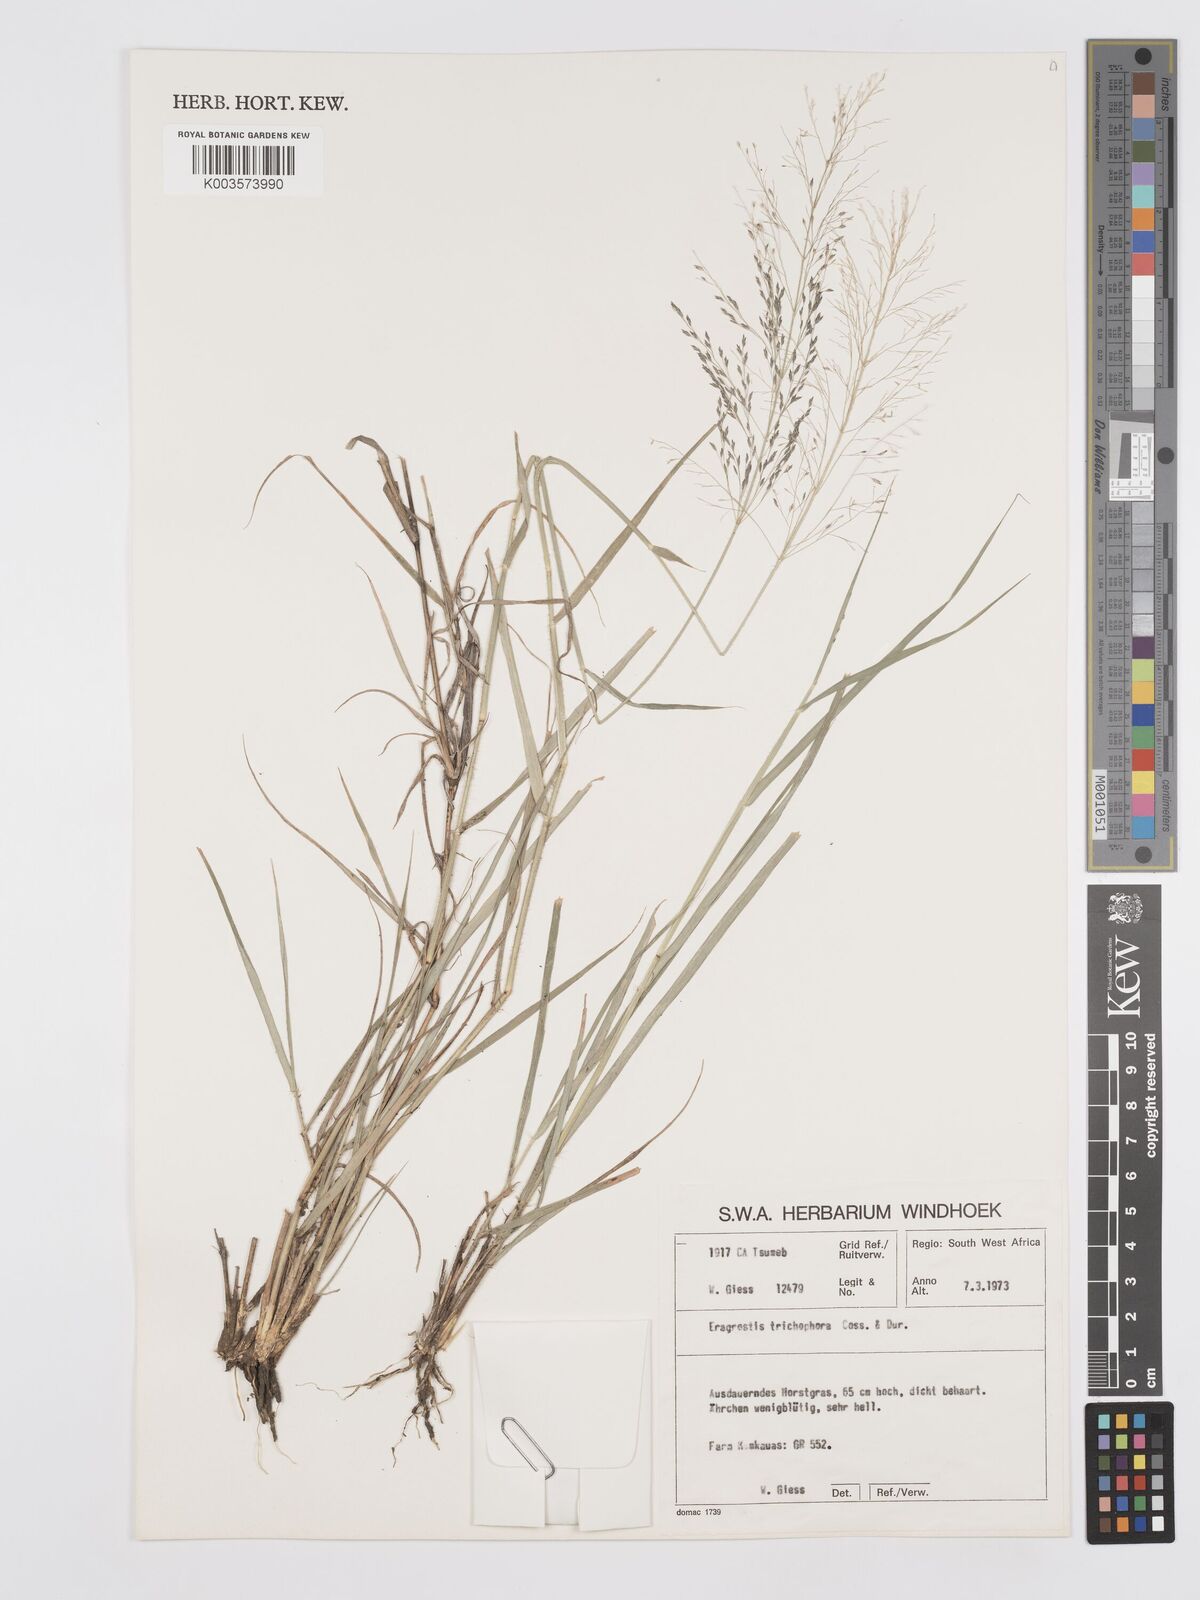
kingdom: Plantae
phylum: Tracheophyta
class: Liliopsida
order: Poales
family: Poaceae
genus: Eragrostis
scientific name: Eragrostis cylindriflora
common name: Cylinderflower lovegrass
